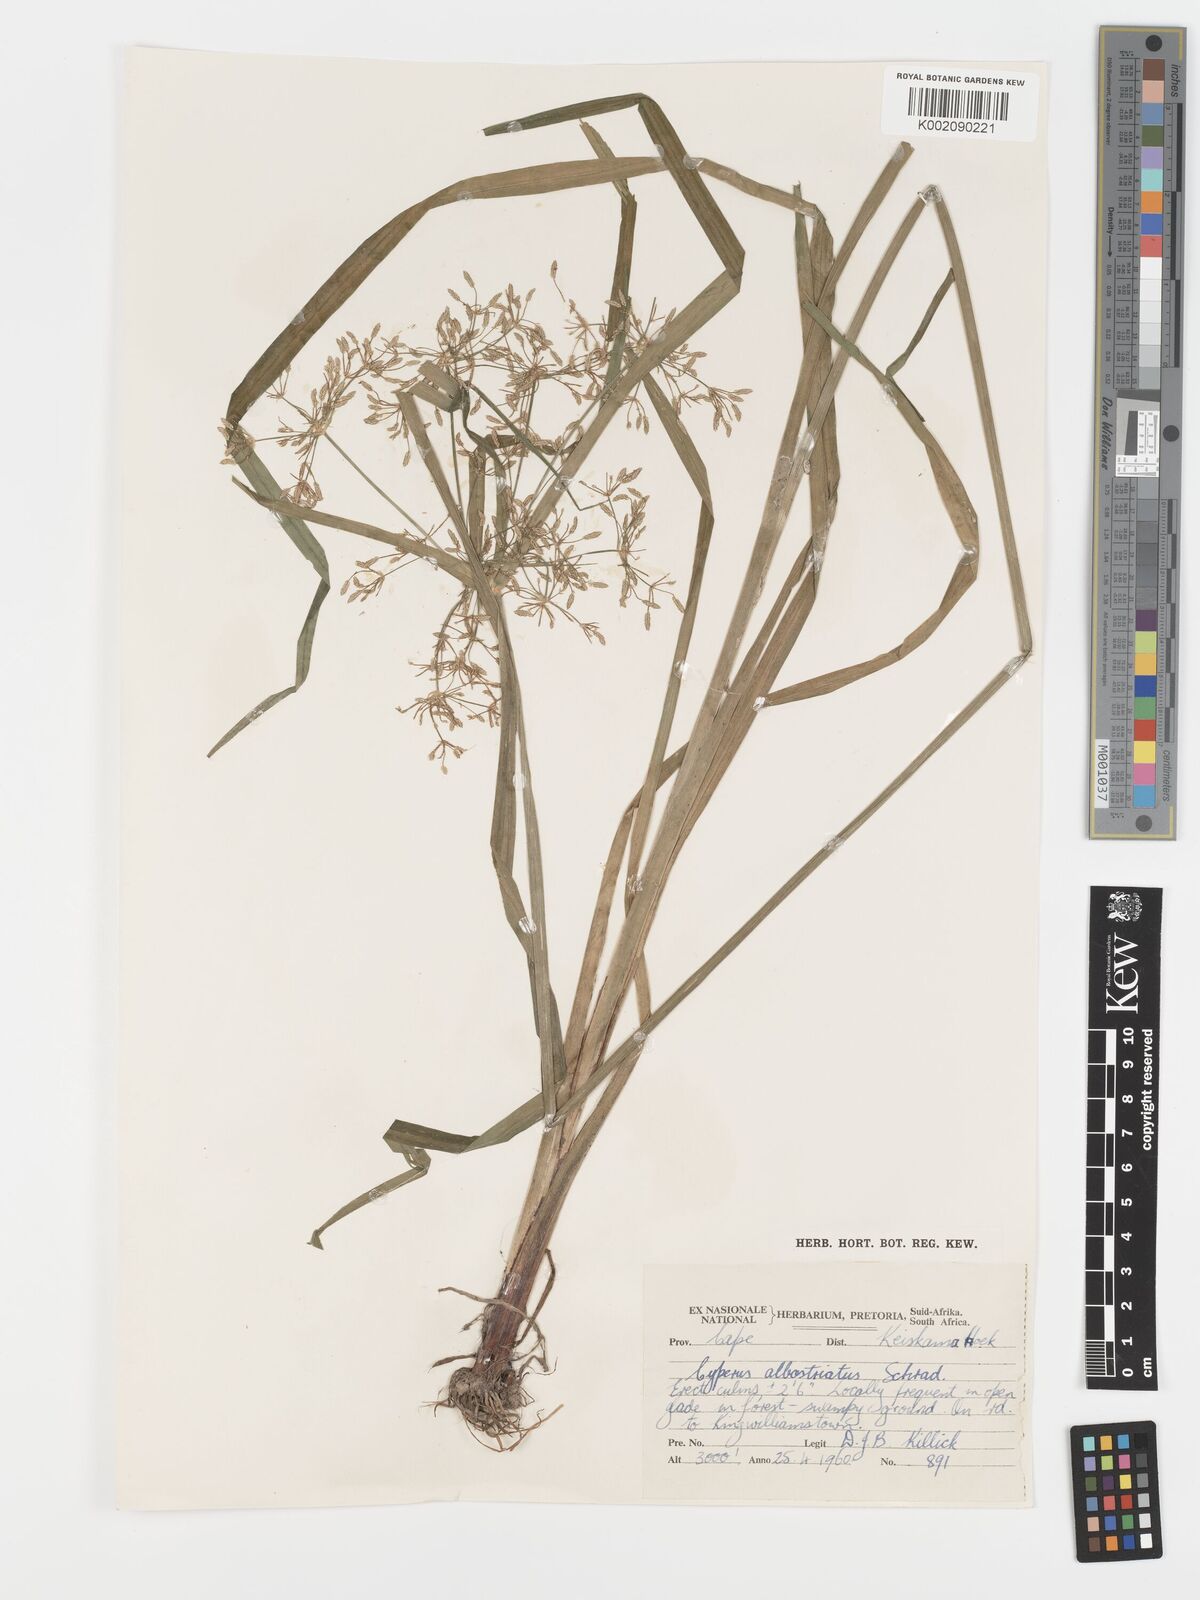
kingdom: Plantae
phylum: Tracheophyta
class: Liliopsida
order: Poales
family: Cyperaceae
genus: Cyperus
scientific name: Cyperus albostriatus
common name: Dwarf umbrella-grass
